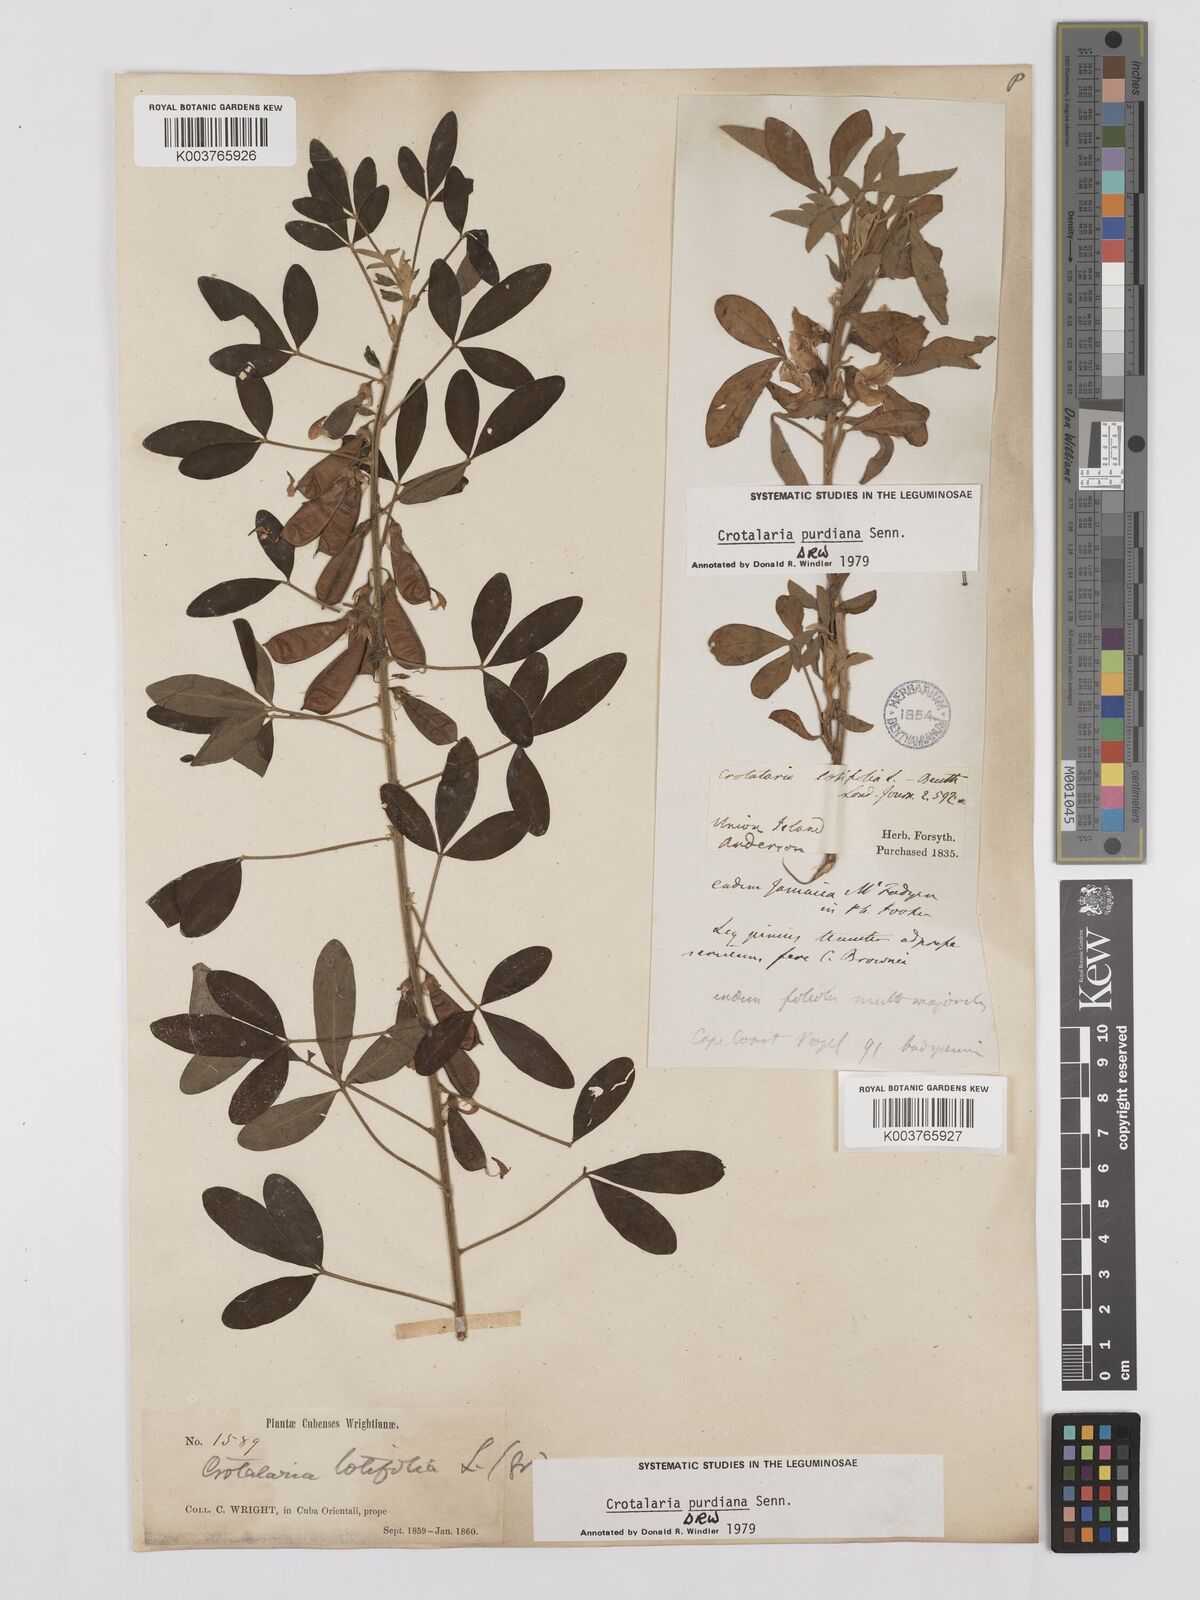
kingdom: Plantae
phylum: Tracheophyta
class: Magnoliopsida
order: Fabales
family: Fabaceae
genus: Crotalaria
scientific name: Crotalaria purdieana
